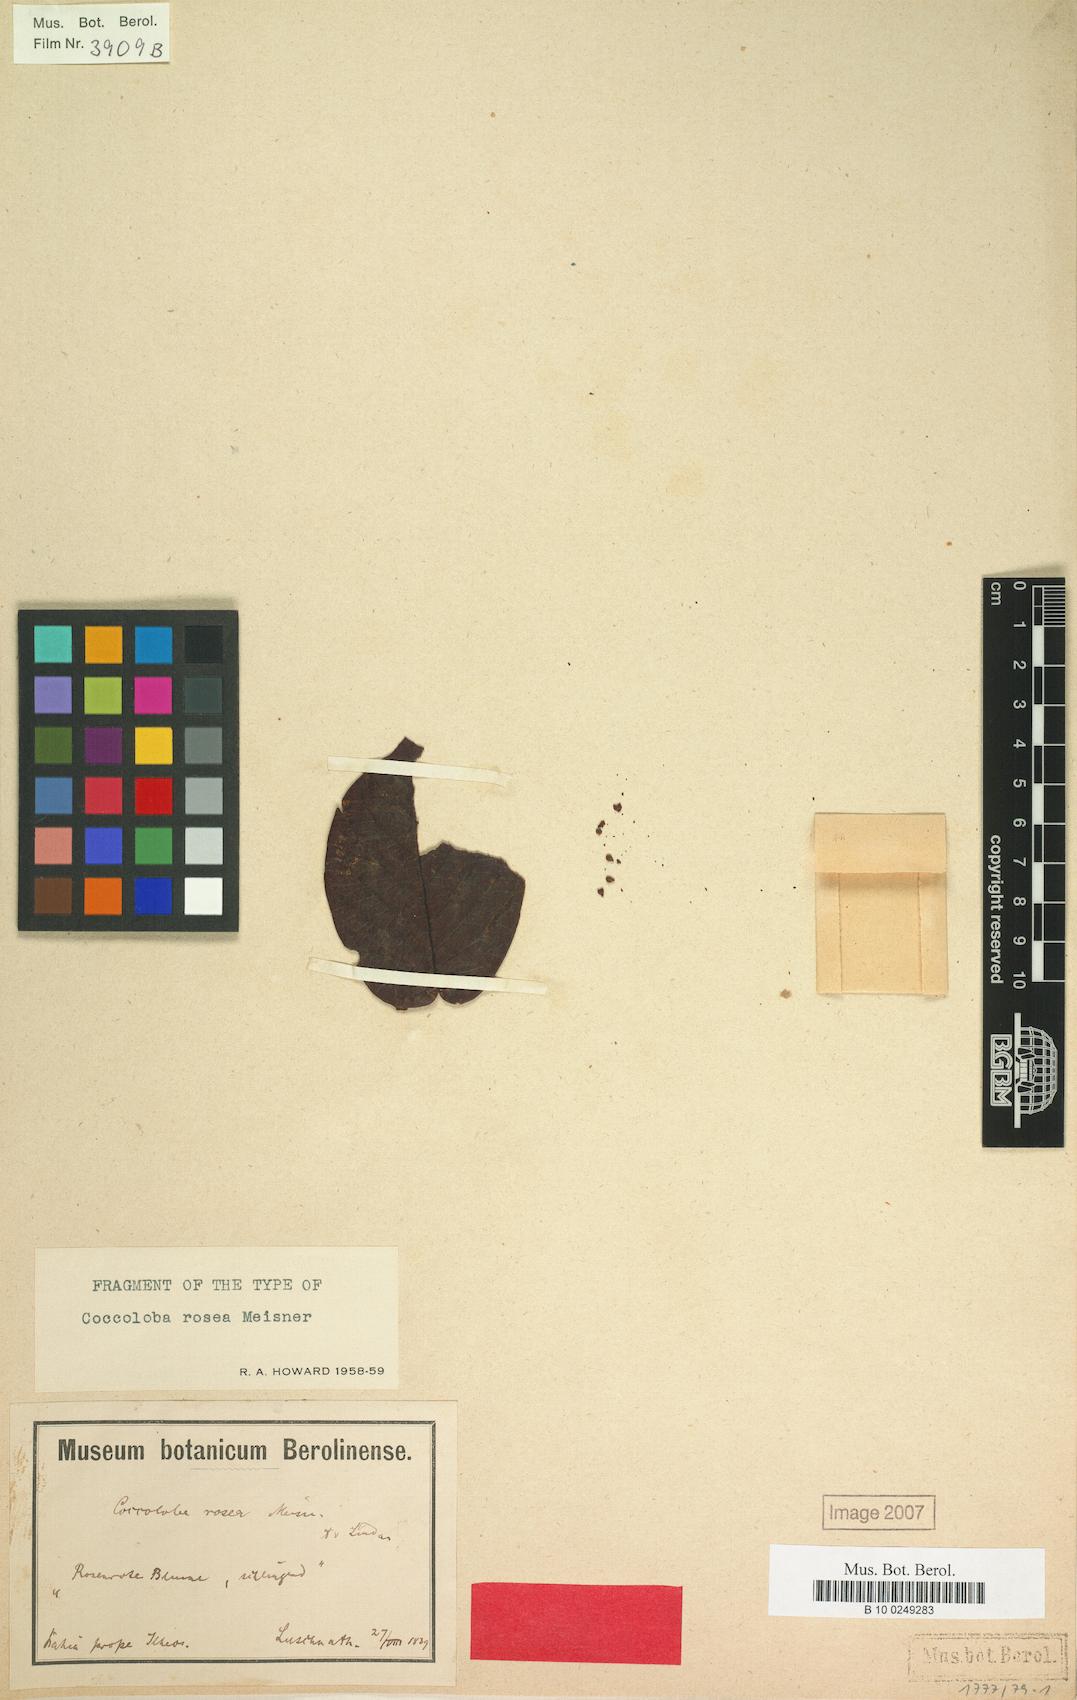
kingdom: Plantae
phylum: Tracheophyta
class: Magnoliopsida
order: Caryophyllales
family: Polygonaceae
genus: Coccoloba
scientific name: Coccoloba rosea
